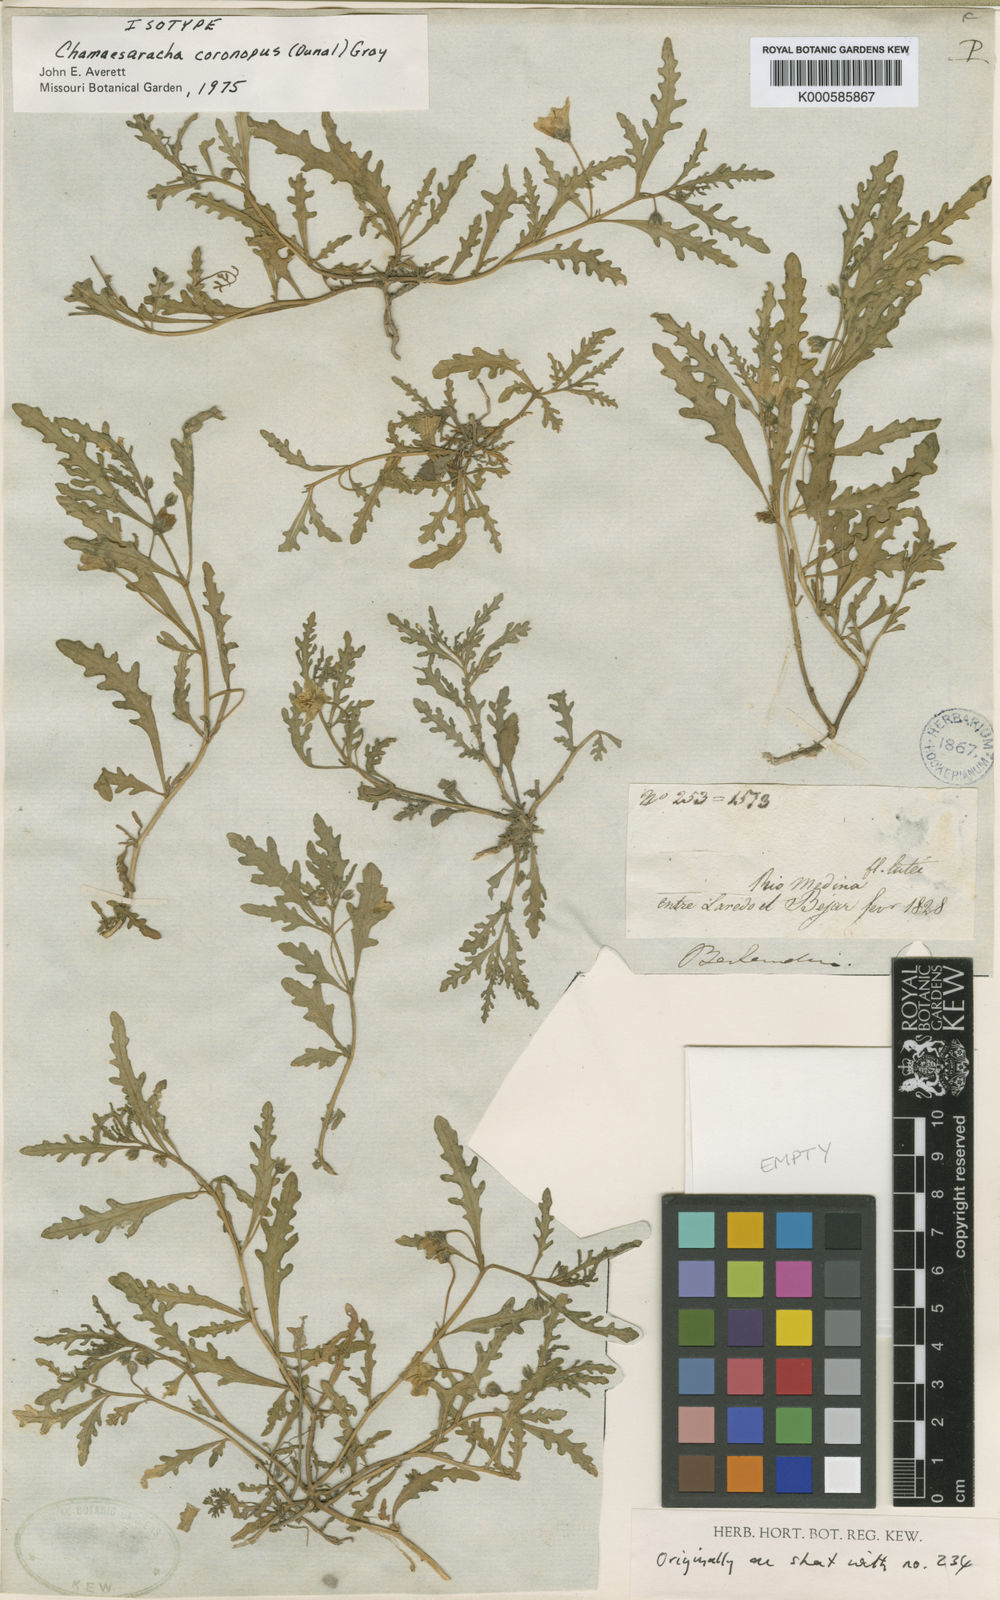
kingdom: Plantae
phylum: Tracheophyta
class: Magnoliopsida
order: Solanales
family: Solanaceae
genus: Chamaesaracha
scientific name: Chamaesaracha coronopus
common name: Smooth chamaesaracha
